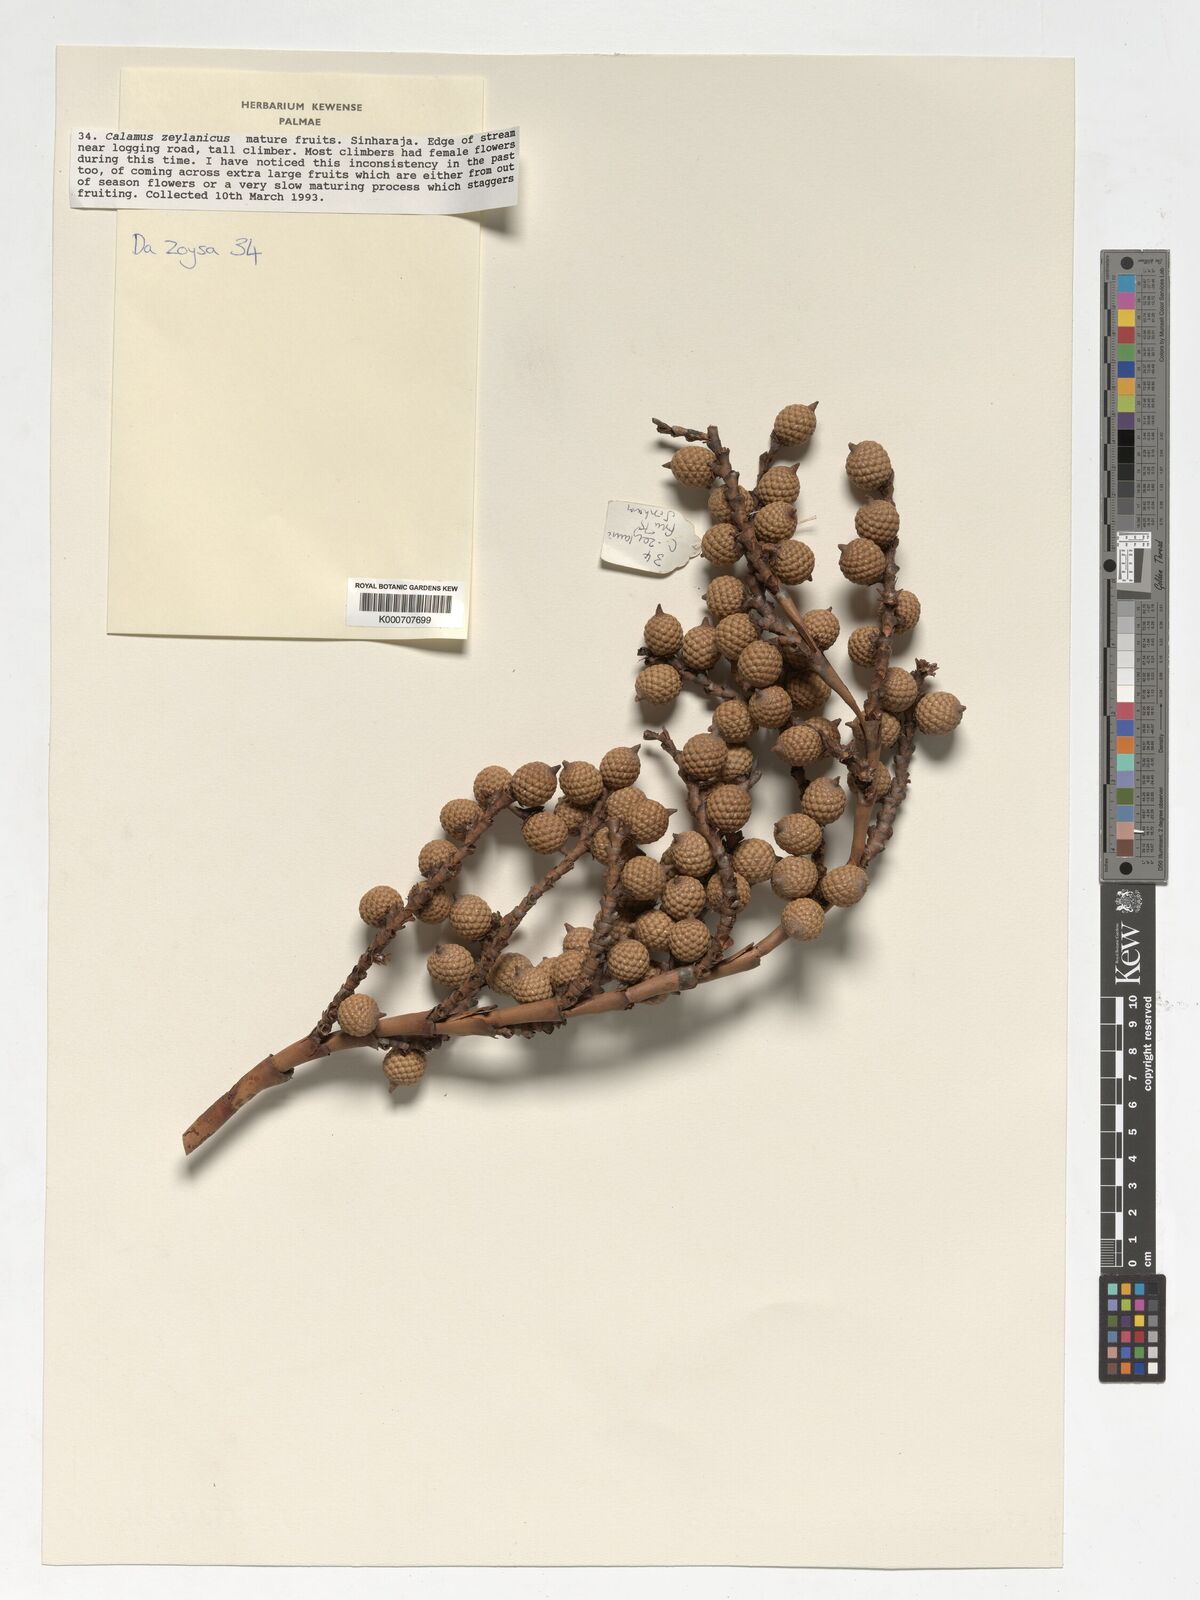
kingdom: Plantae
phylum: Tracheophyta
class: Liliopsida
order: Arecales
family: Arecaceae
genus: Calamus
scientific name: Calamus zeylanicus
